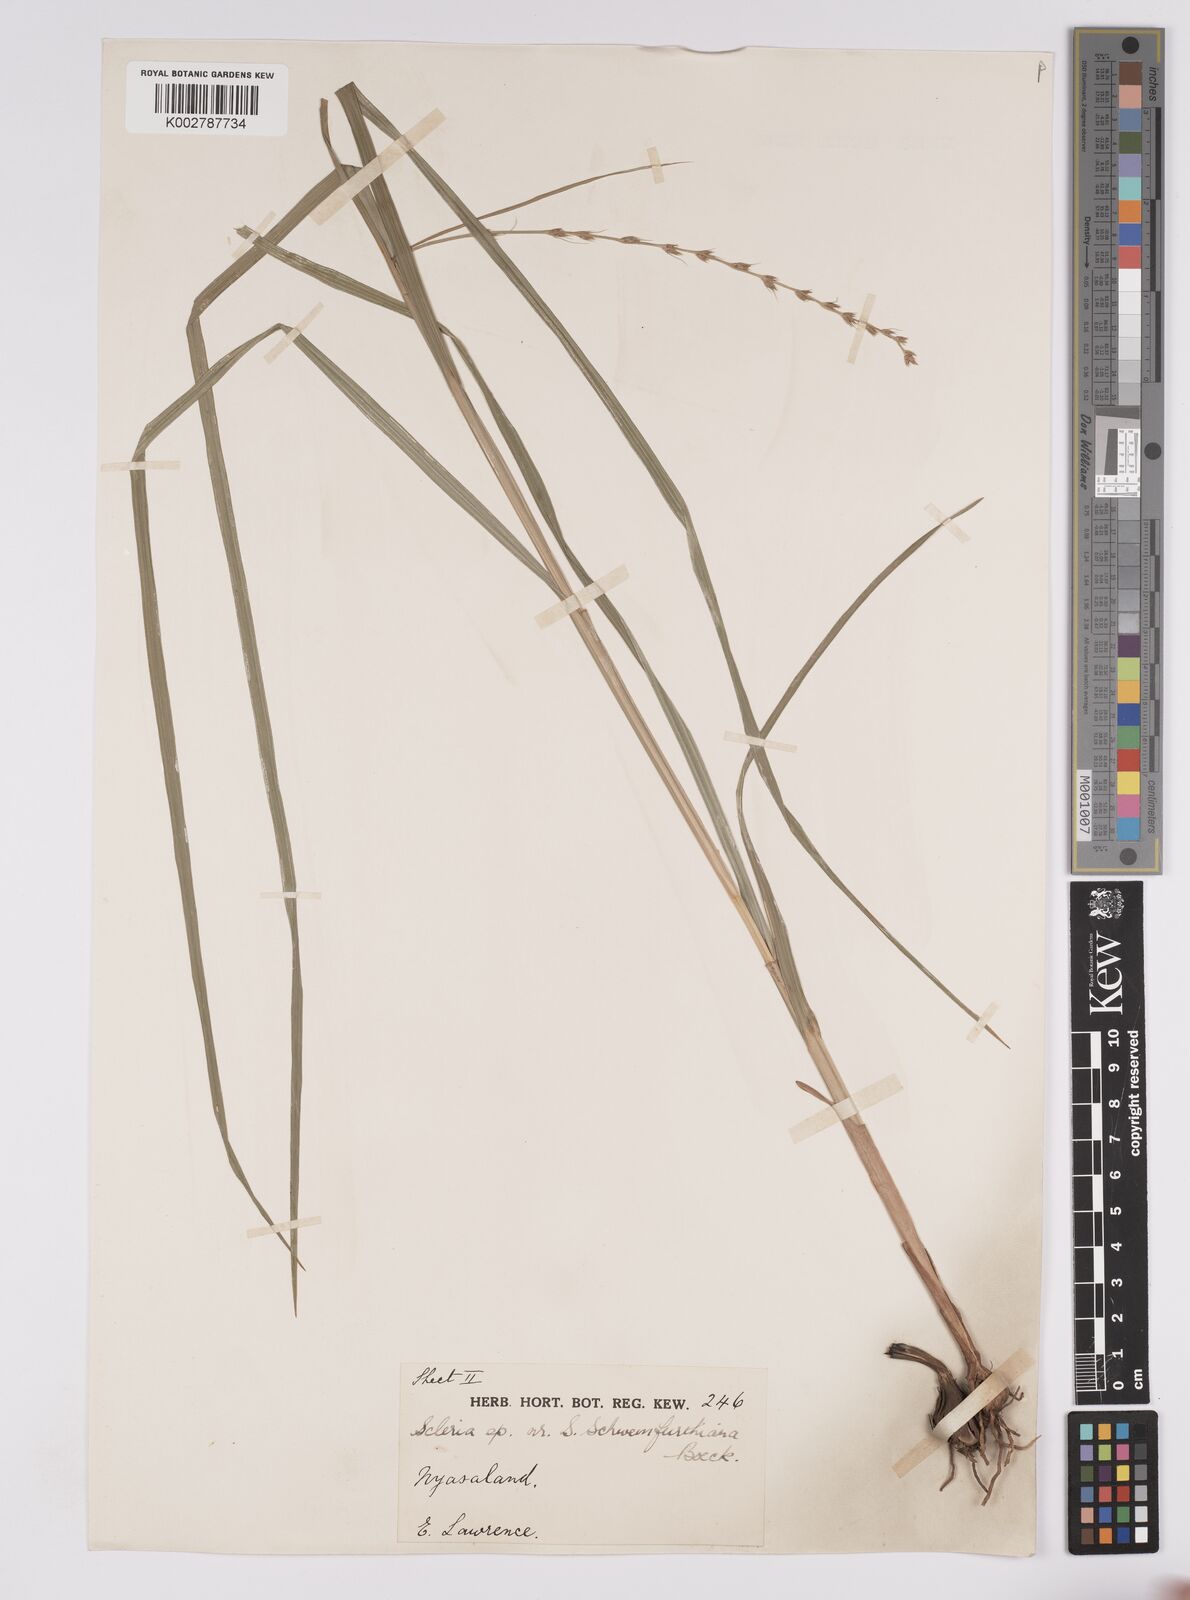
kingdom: Plantae
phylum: Tracheophyta
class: Liliopsida
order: Poales
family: Cyperaceae
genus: Scleria
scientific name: Scleria bulbifera
